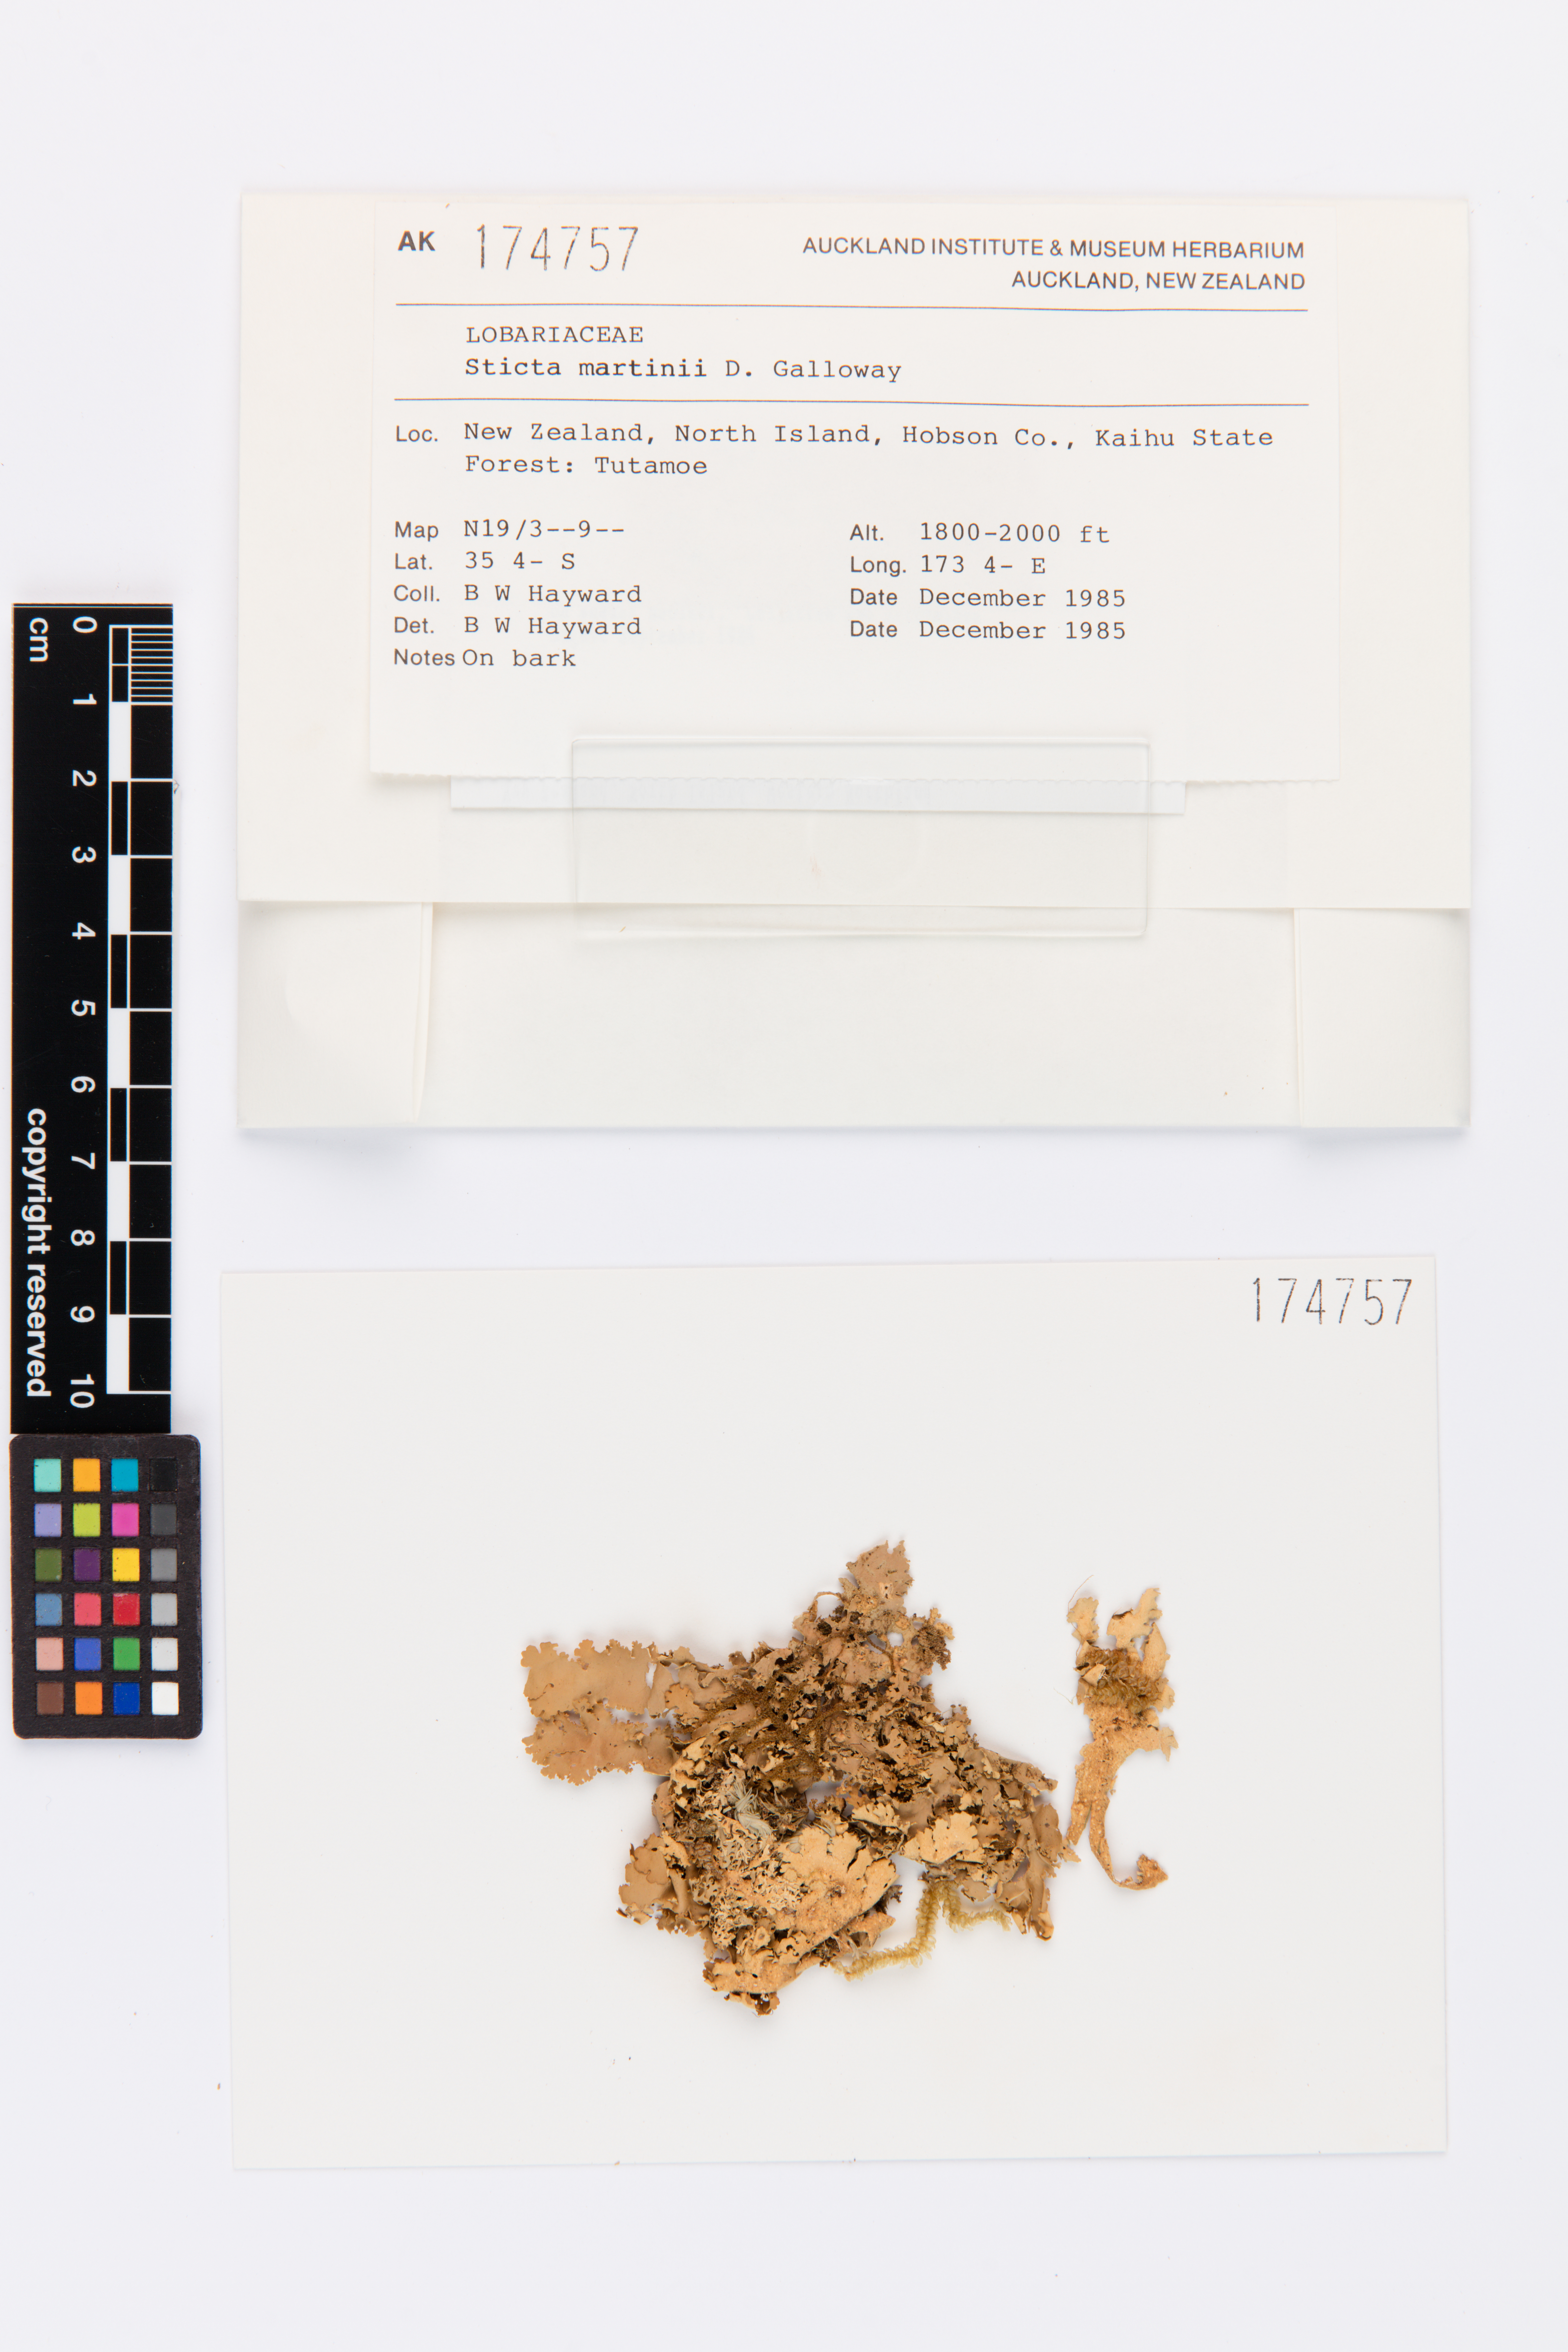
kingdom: Fungi
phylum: Ascomycota
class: Lecanoromycetes
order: Peltigerales
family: Lobariaceae
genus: Sticta
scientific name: Sticta martinii
